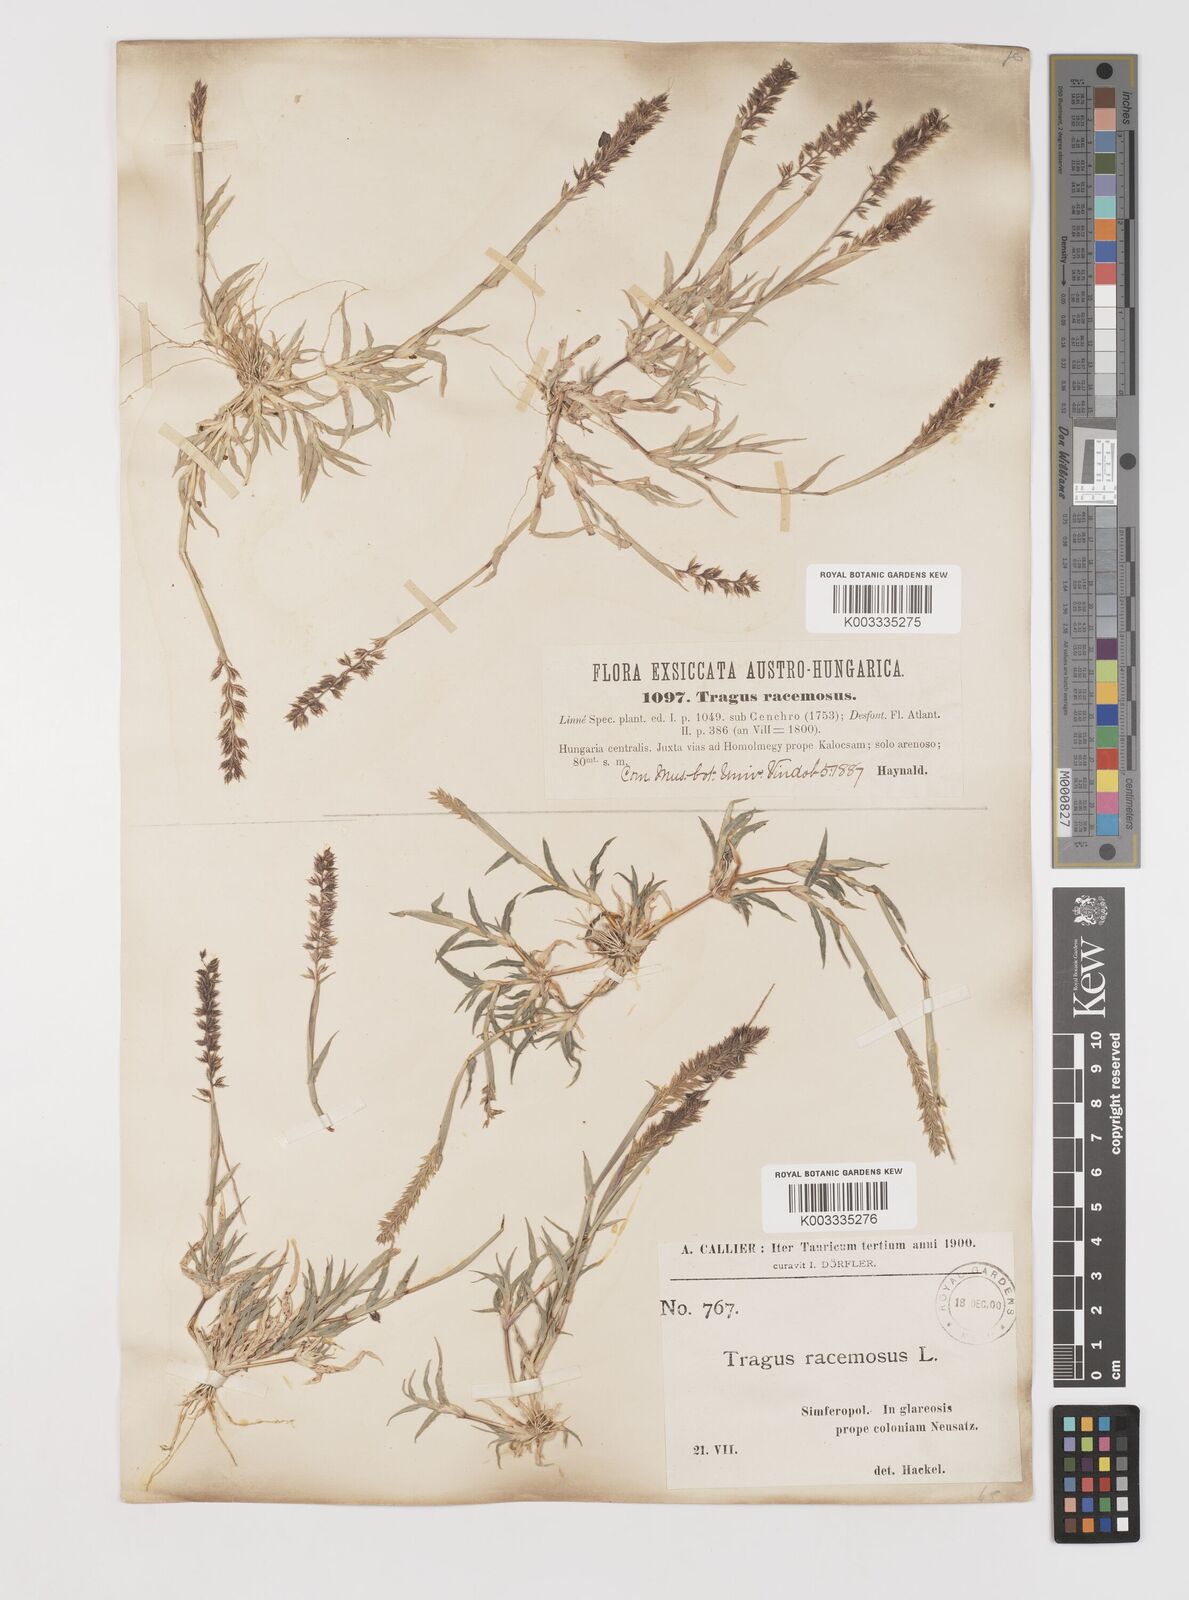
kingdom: Plantae
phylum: Tracheophyta
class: Liliopsida
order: Poales
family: Poaceae
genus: Tragus
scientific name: Tragus racemosus
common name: European bur-grass
